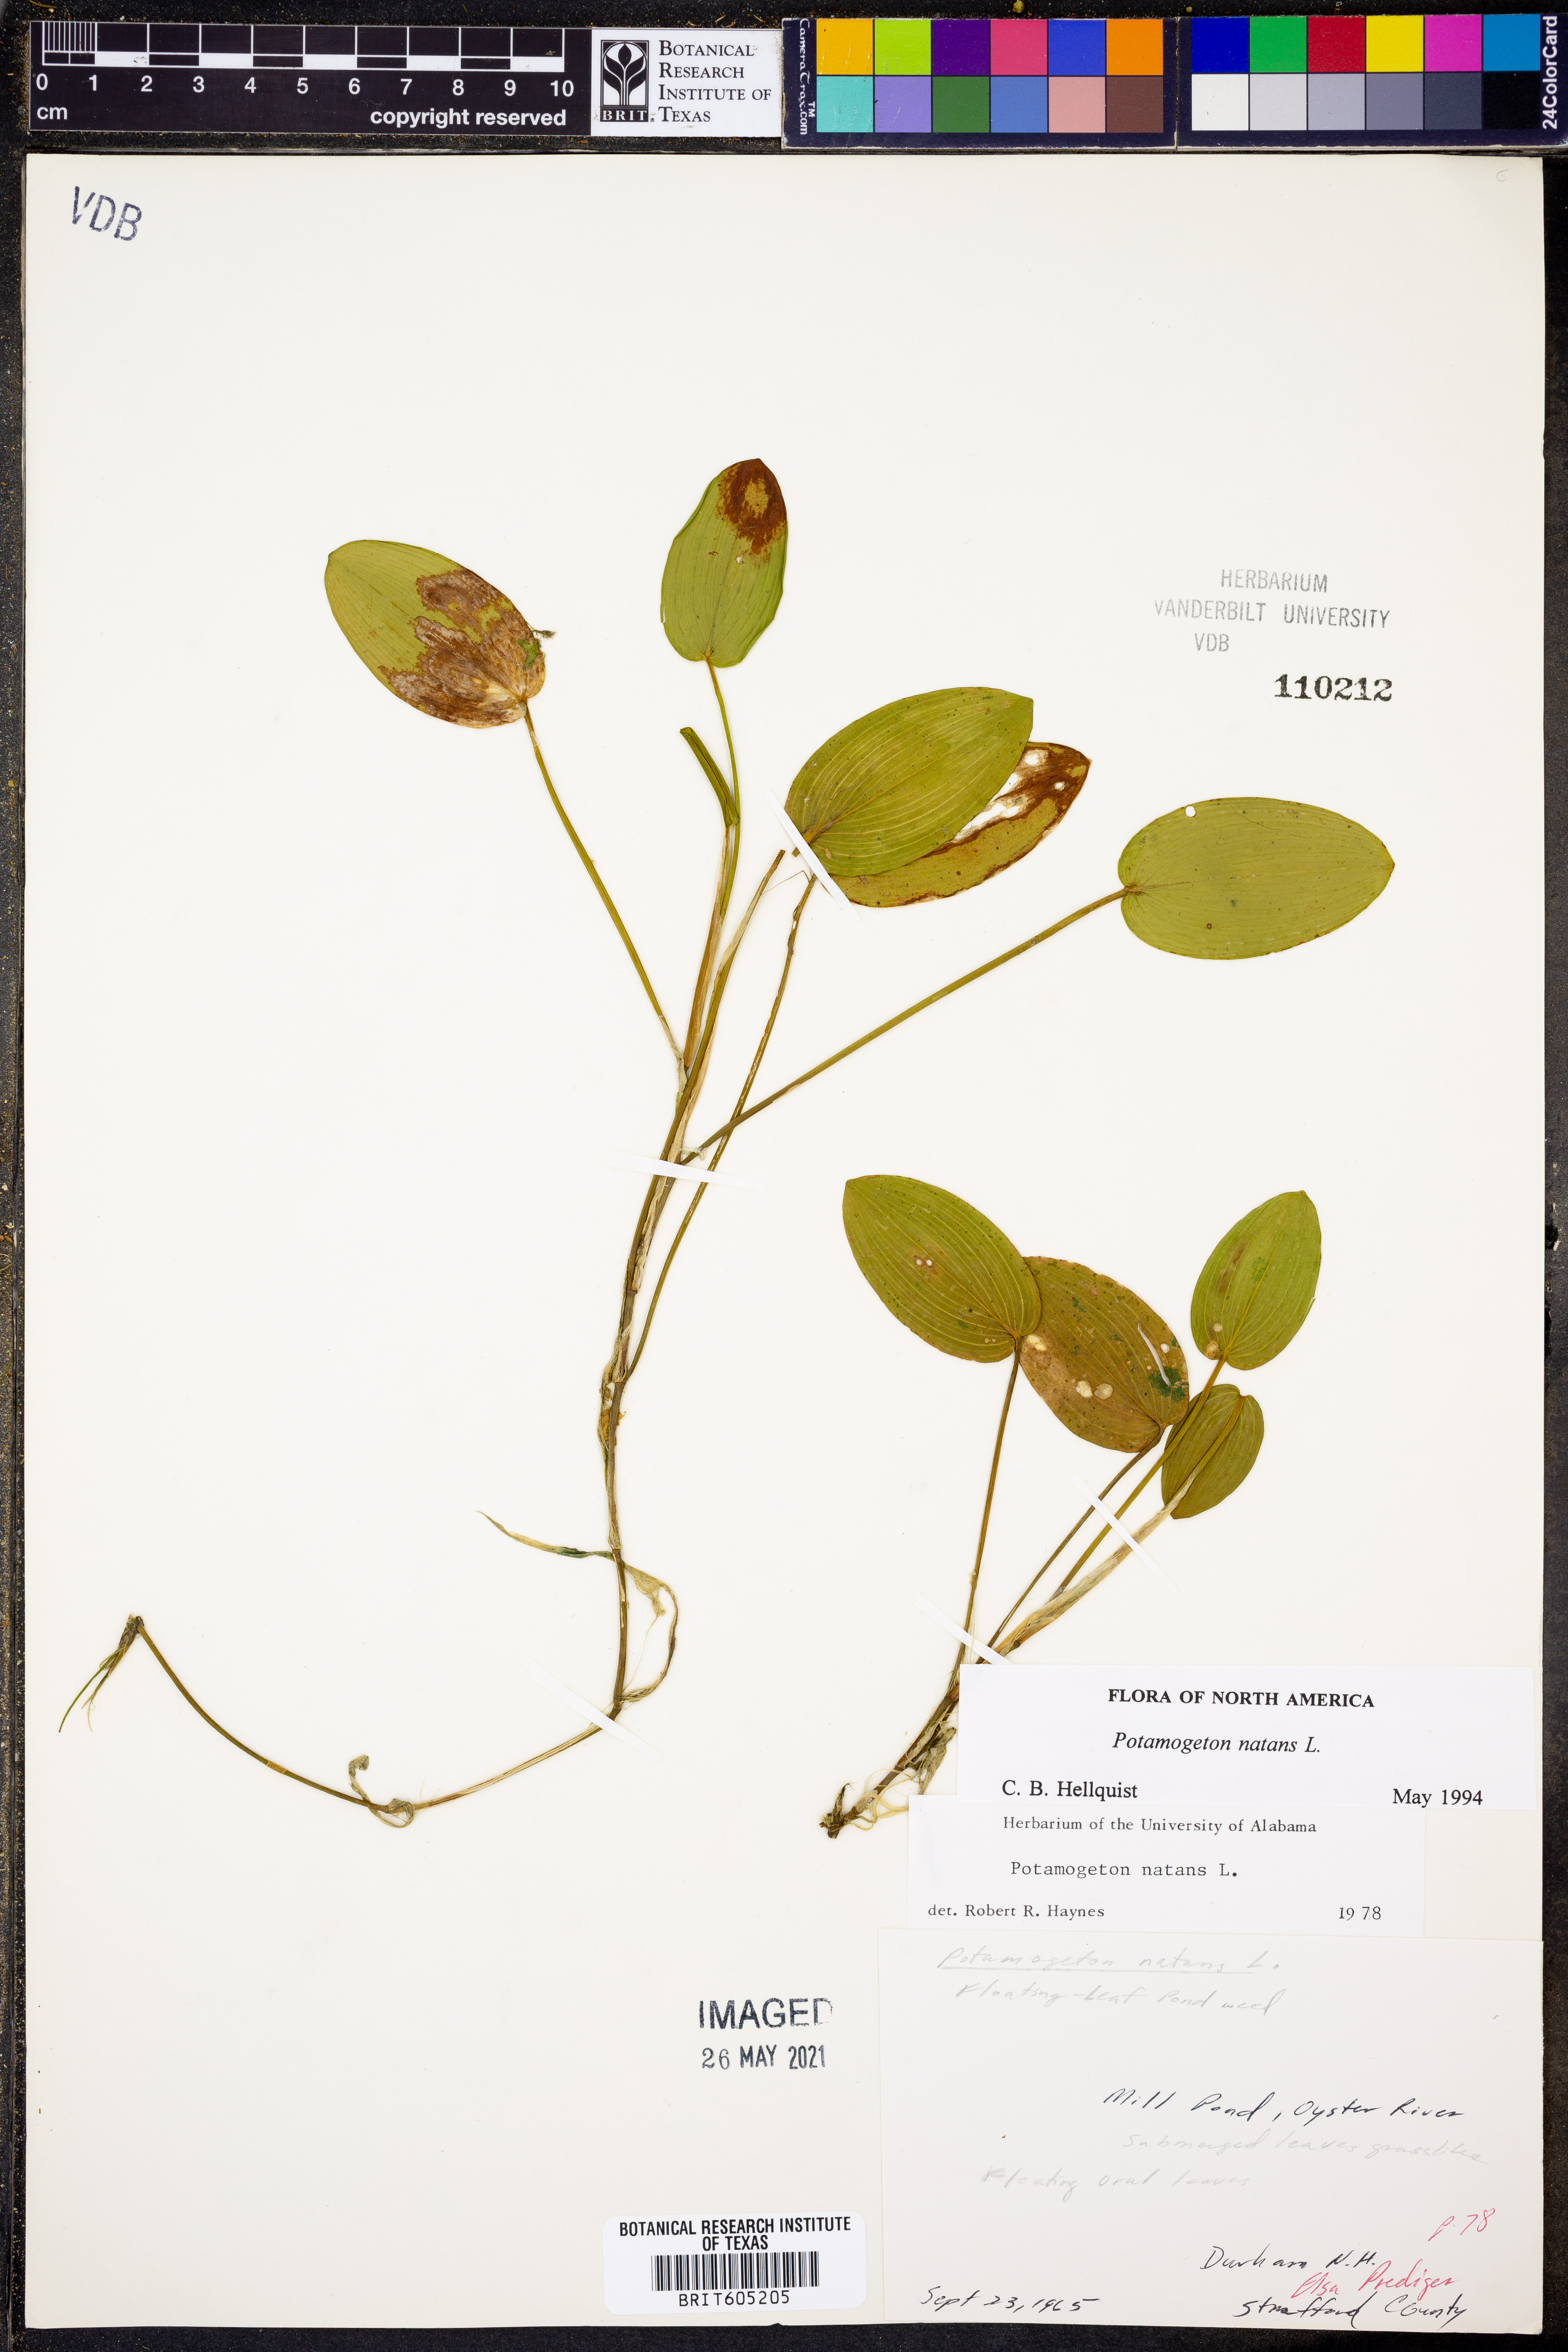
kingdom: Plantae
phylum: Tracheophyta
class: Liliopsida
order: Alismatales
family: Potamogetonaceae
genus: Potamogeton
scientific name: Potamogeton natans
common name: Broad-leaved pondweed
